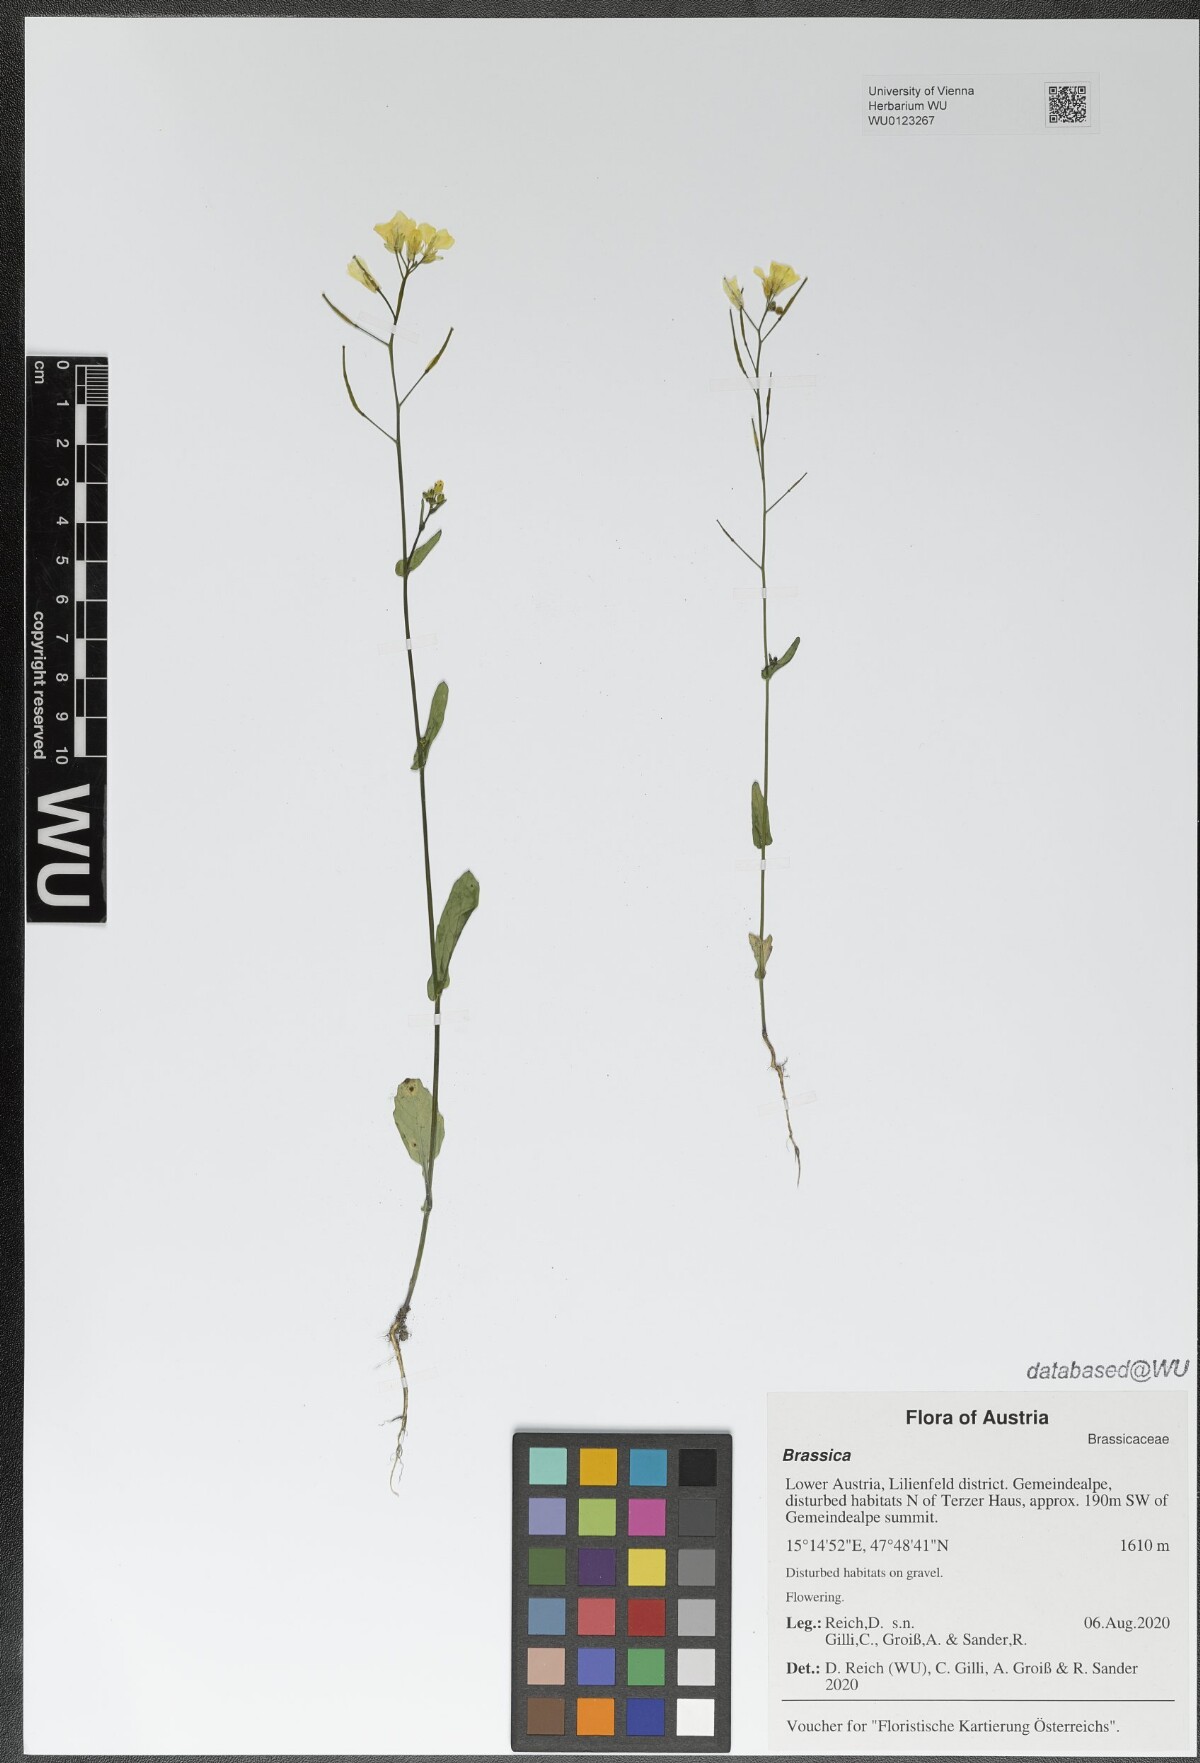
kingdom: Plantae
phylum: Tracheophyta
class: Magnoliopsida
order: Brassicales
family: Brassicaceae
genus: Brassica
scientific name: Brassica
